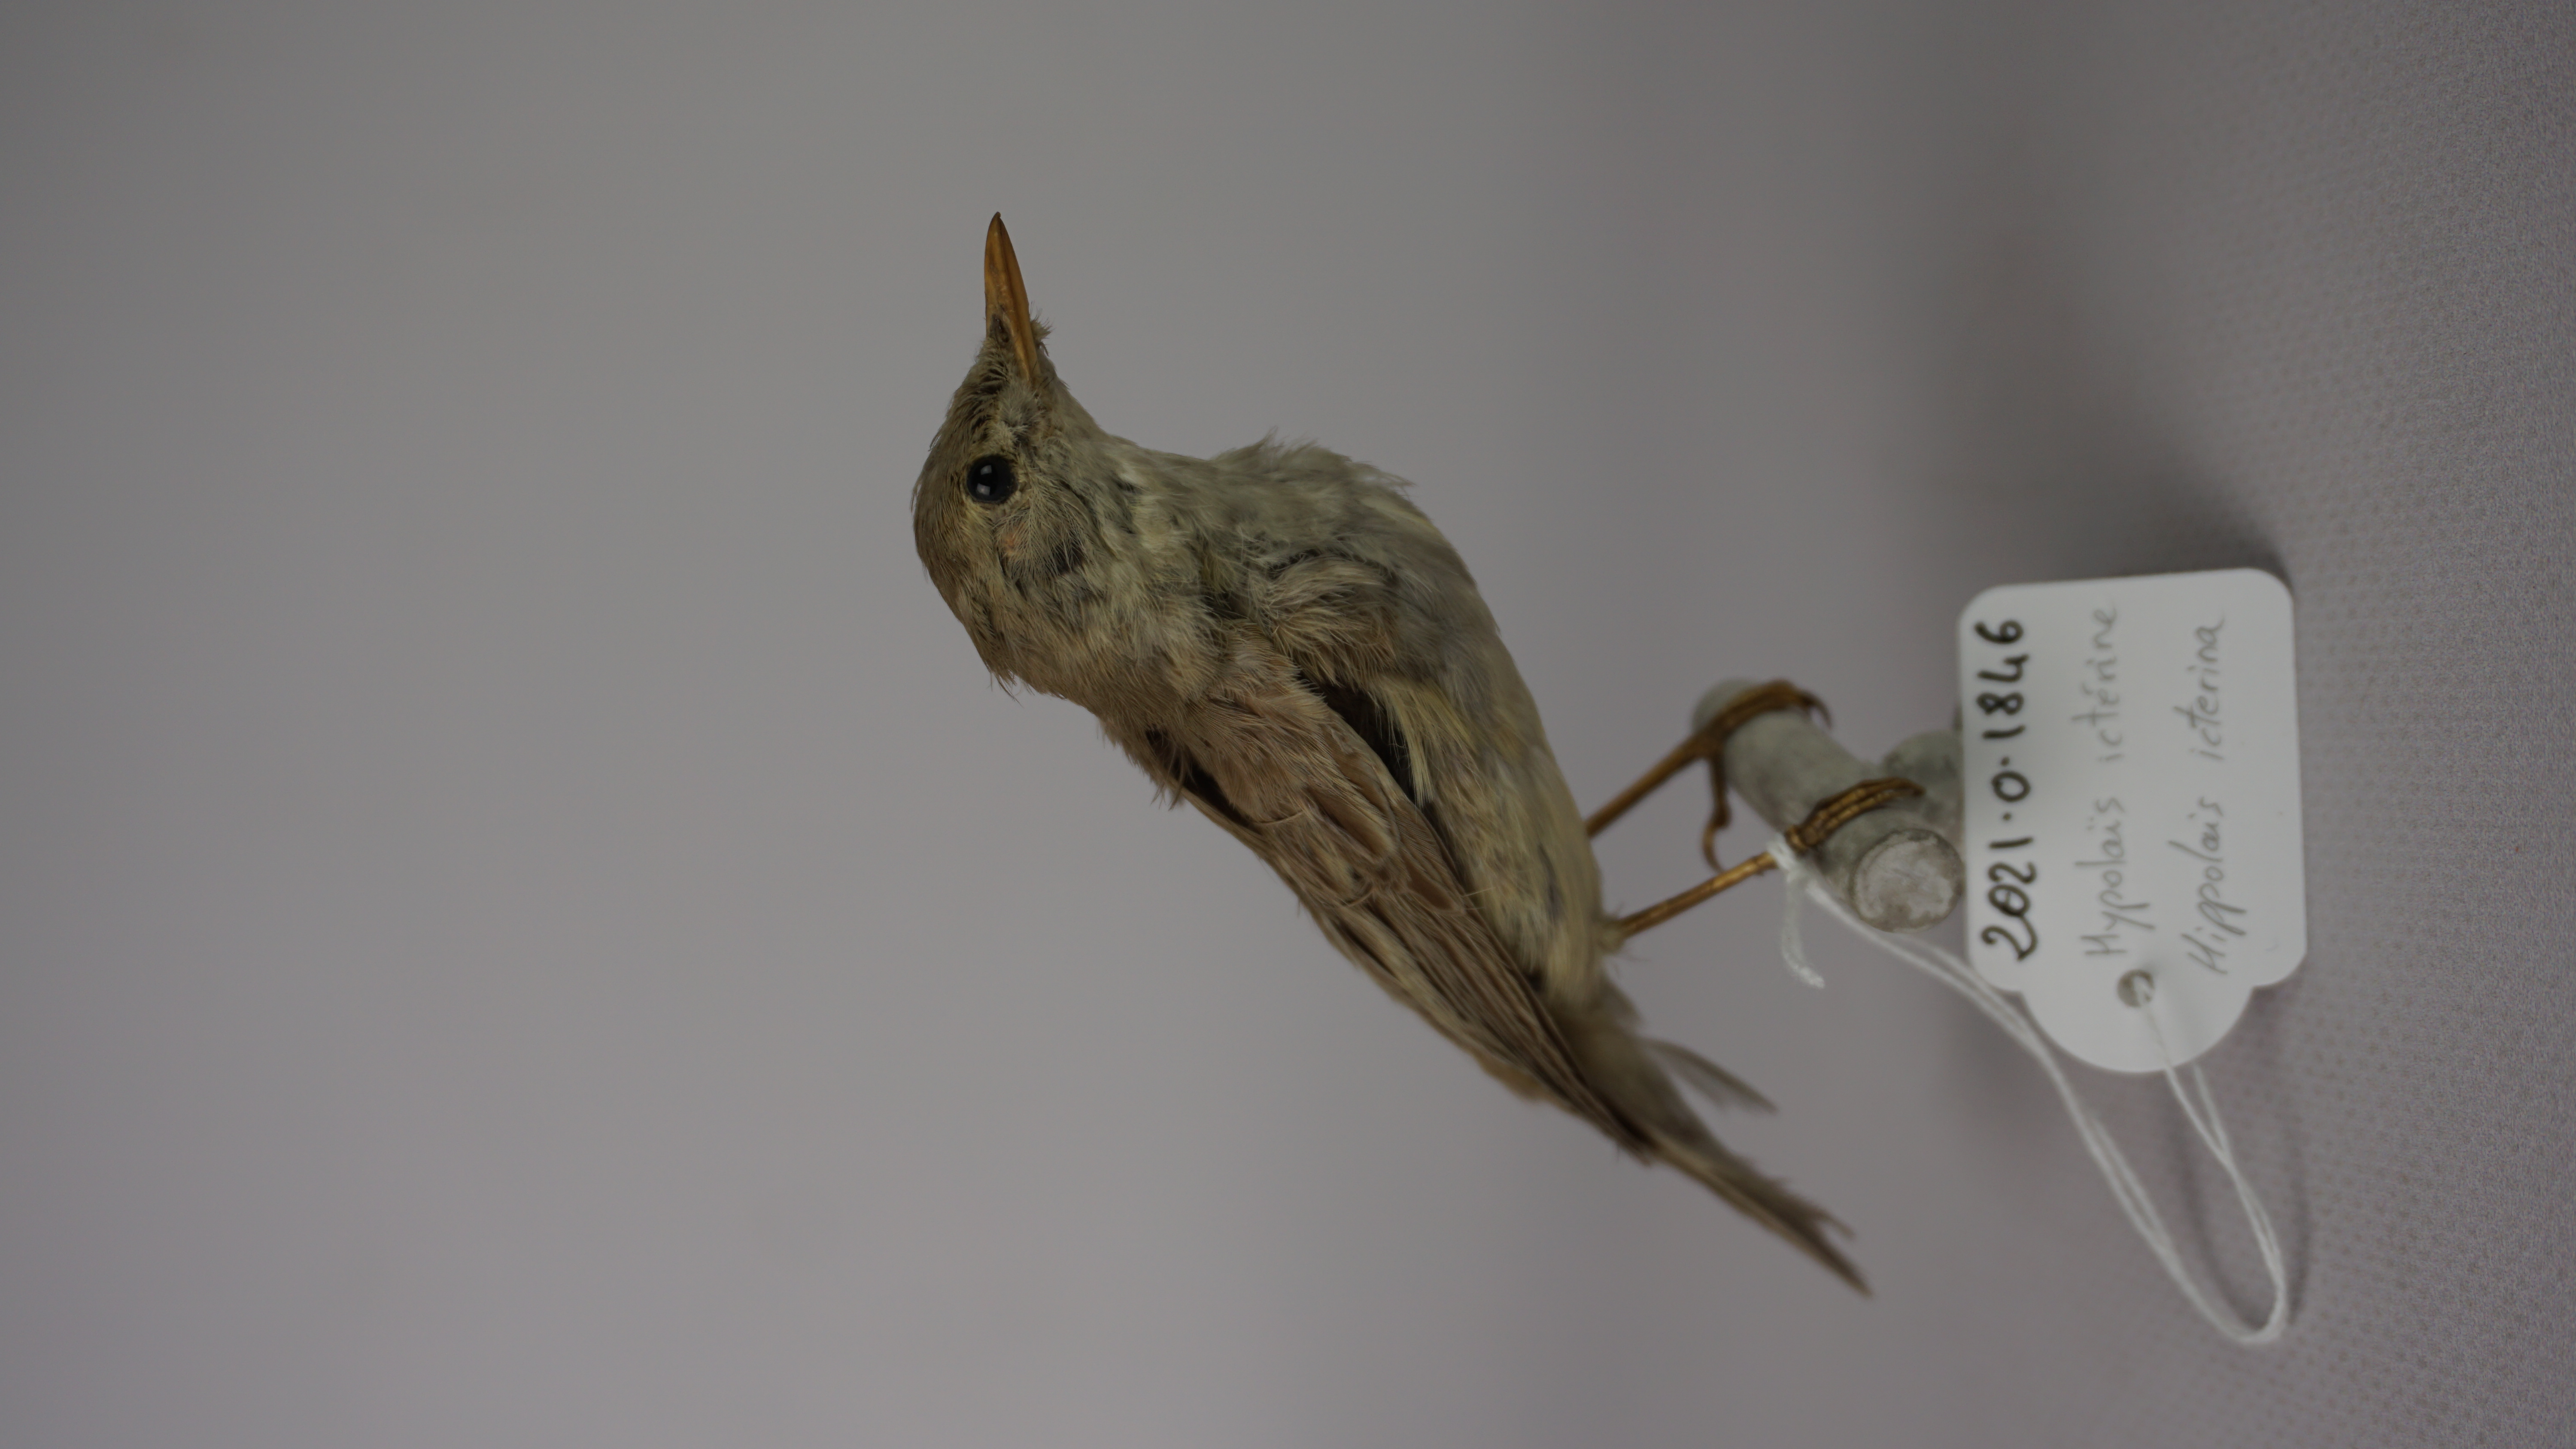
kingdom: Animalia
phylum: Chordata
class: Aves
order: Passeriformes
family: Acrocephalidae
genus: Hippolais
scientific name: Hippolais icterina
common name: Icterine warbler
